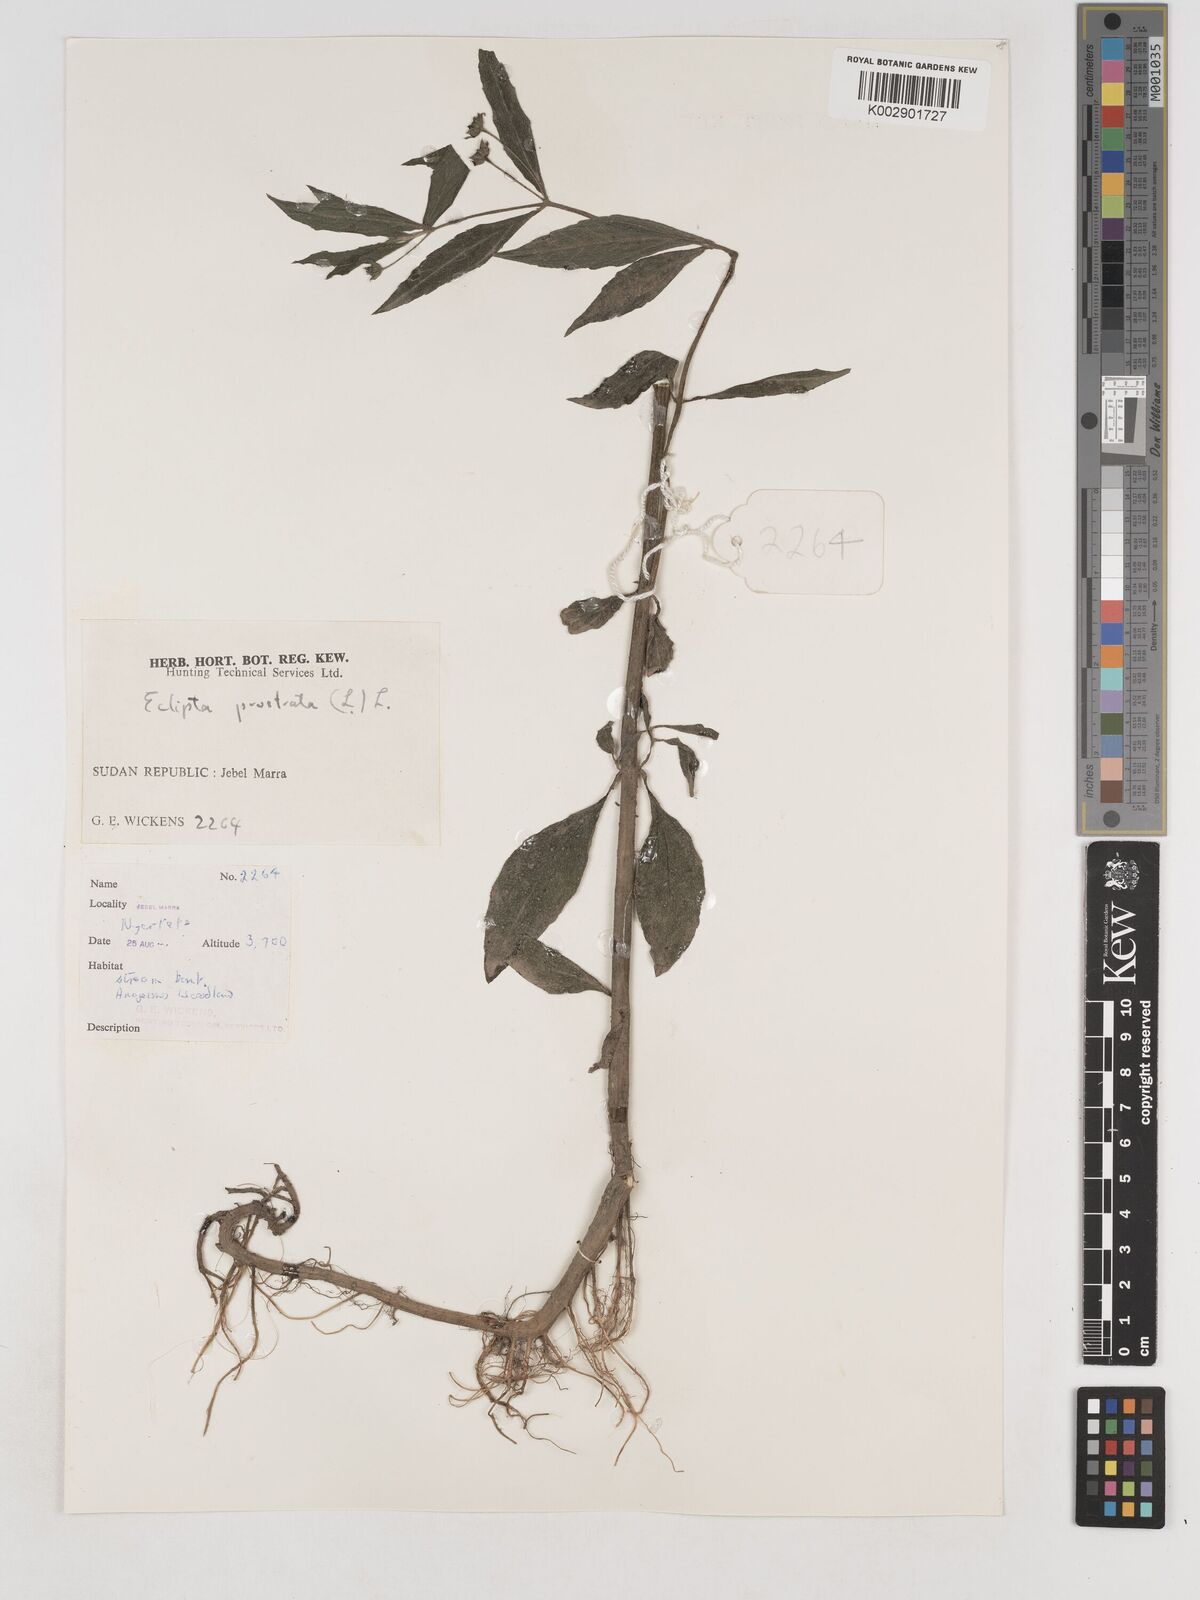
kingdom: Plantae
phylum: Tracheophyta
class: Magnoliopsida
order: Asterales
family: Asteraceae
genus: Eclipta
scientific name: Eclipta prostrata
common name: False daisy
